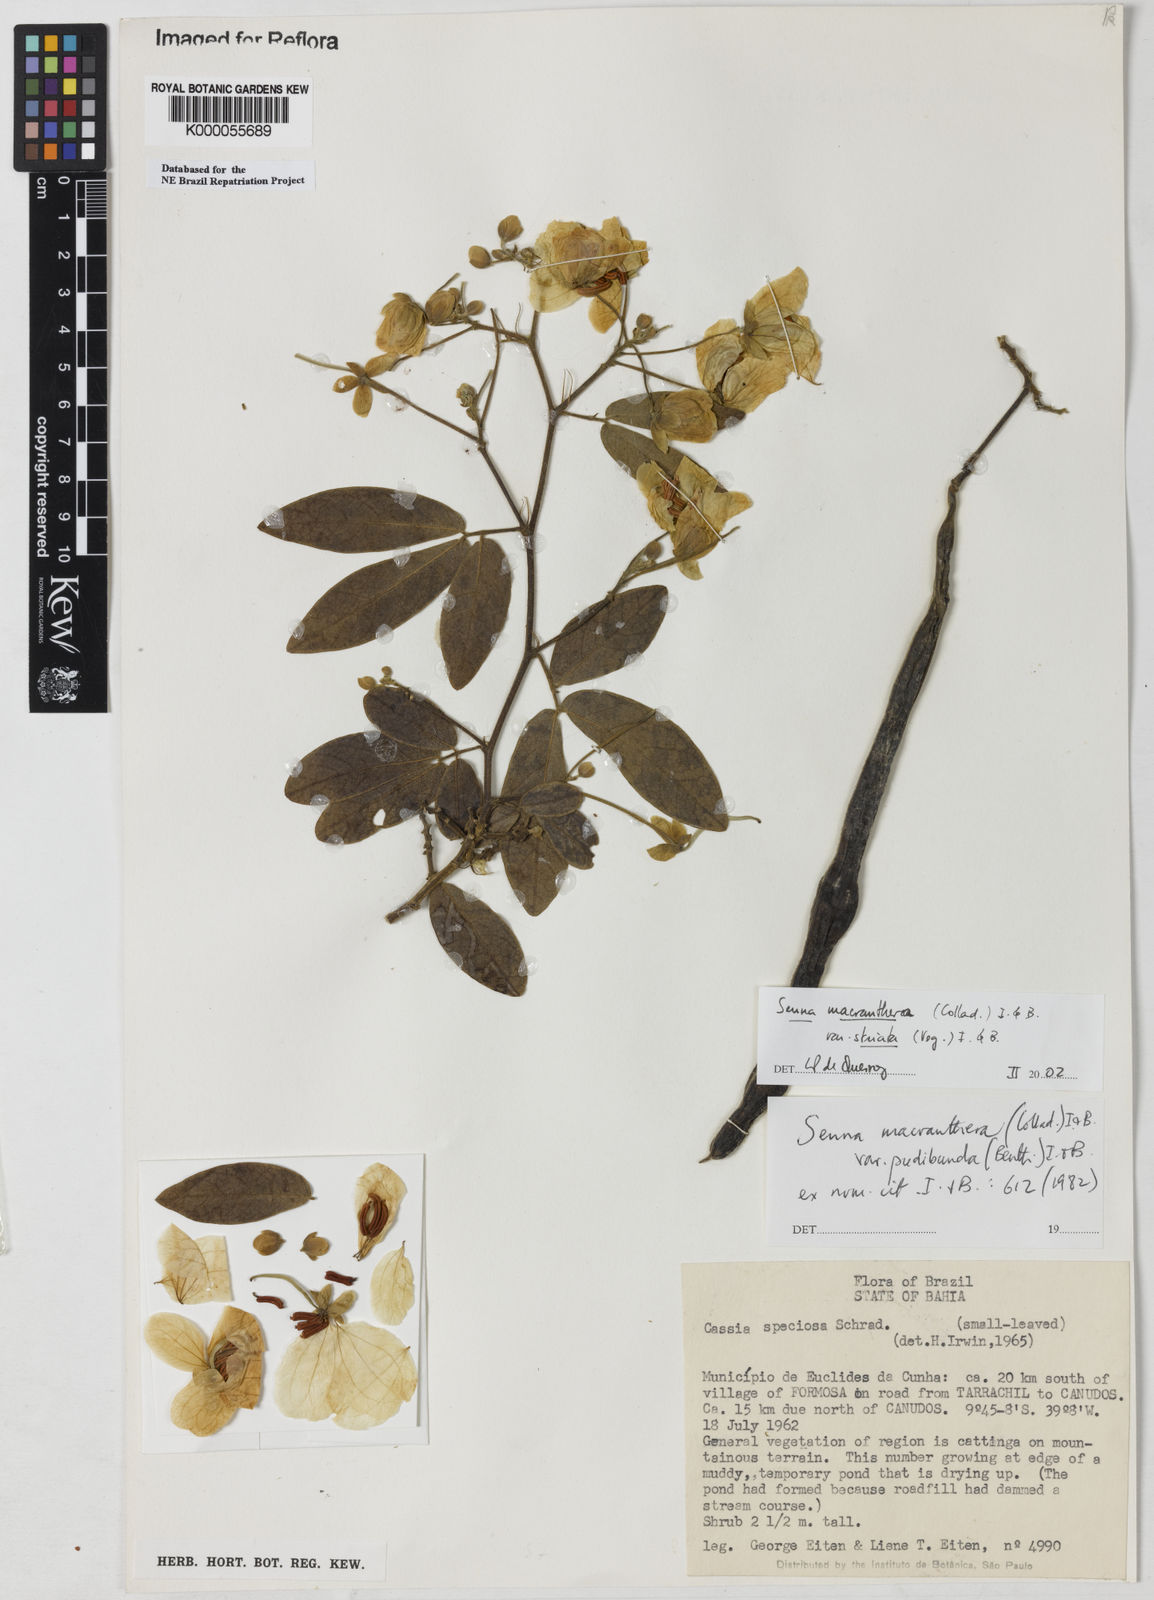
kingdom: Plantae
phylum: Tracheophyta
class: Magnoliopsida
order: Fabales
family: Fabaceae
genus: Senna
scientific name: Senna macranthera
